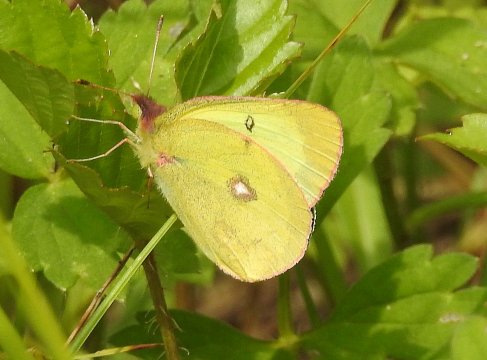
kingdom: Animalia
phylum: Arthropoda
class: Insecta
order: Lepidoptera
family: Pieridae
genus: Colias
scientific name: Colias interior
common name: Pink-edged Sulphur
